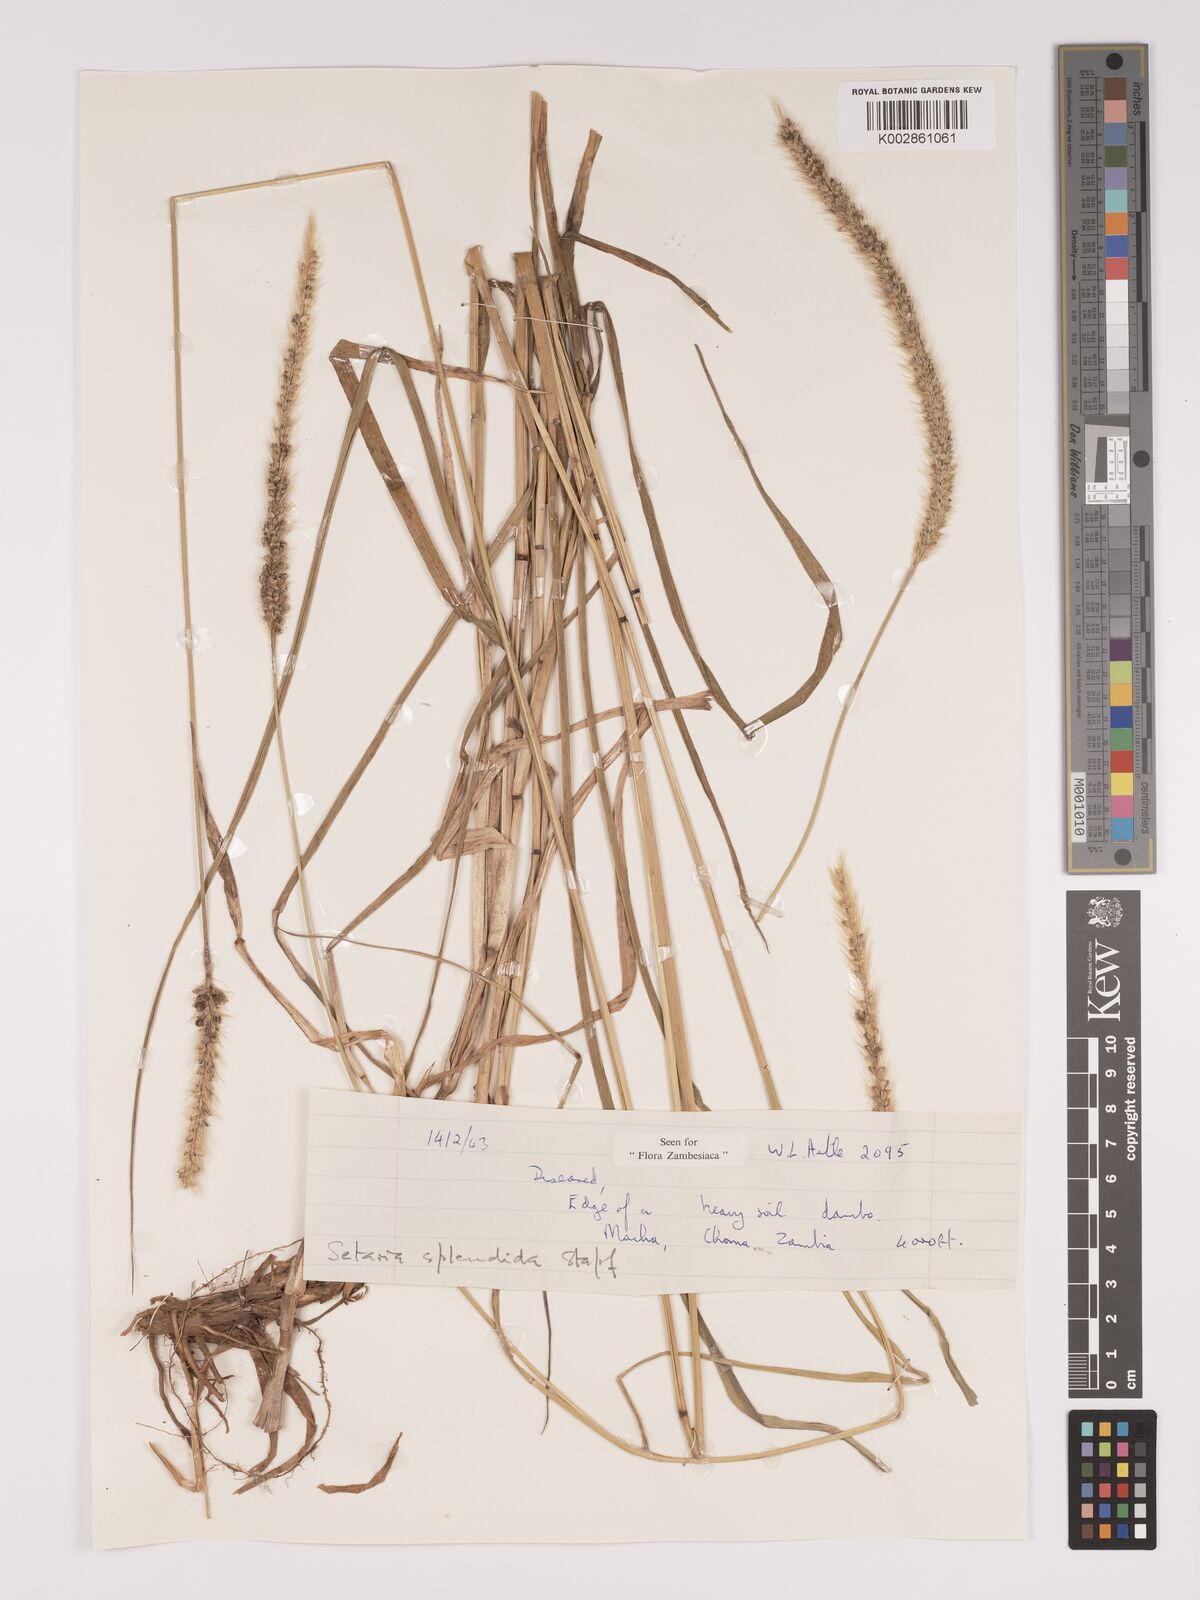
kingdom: Plantae
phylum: Tracheophyta
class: Liliopsida
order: Poales
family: Poaceae
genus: Setaria
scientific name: Setaria sphacelata
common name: African bristlegrass
